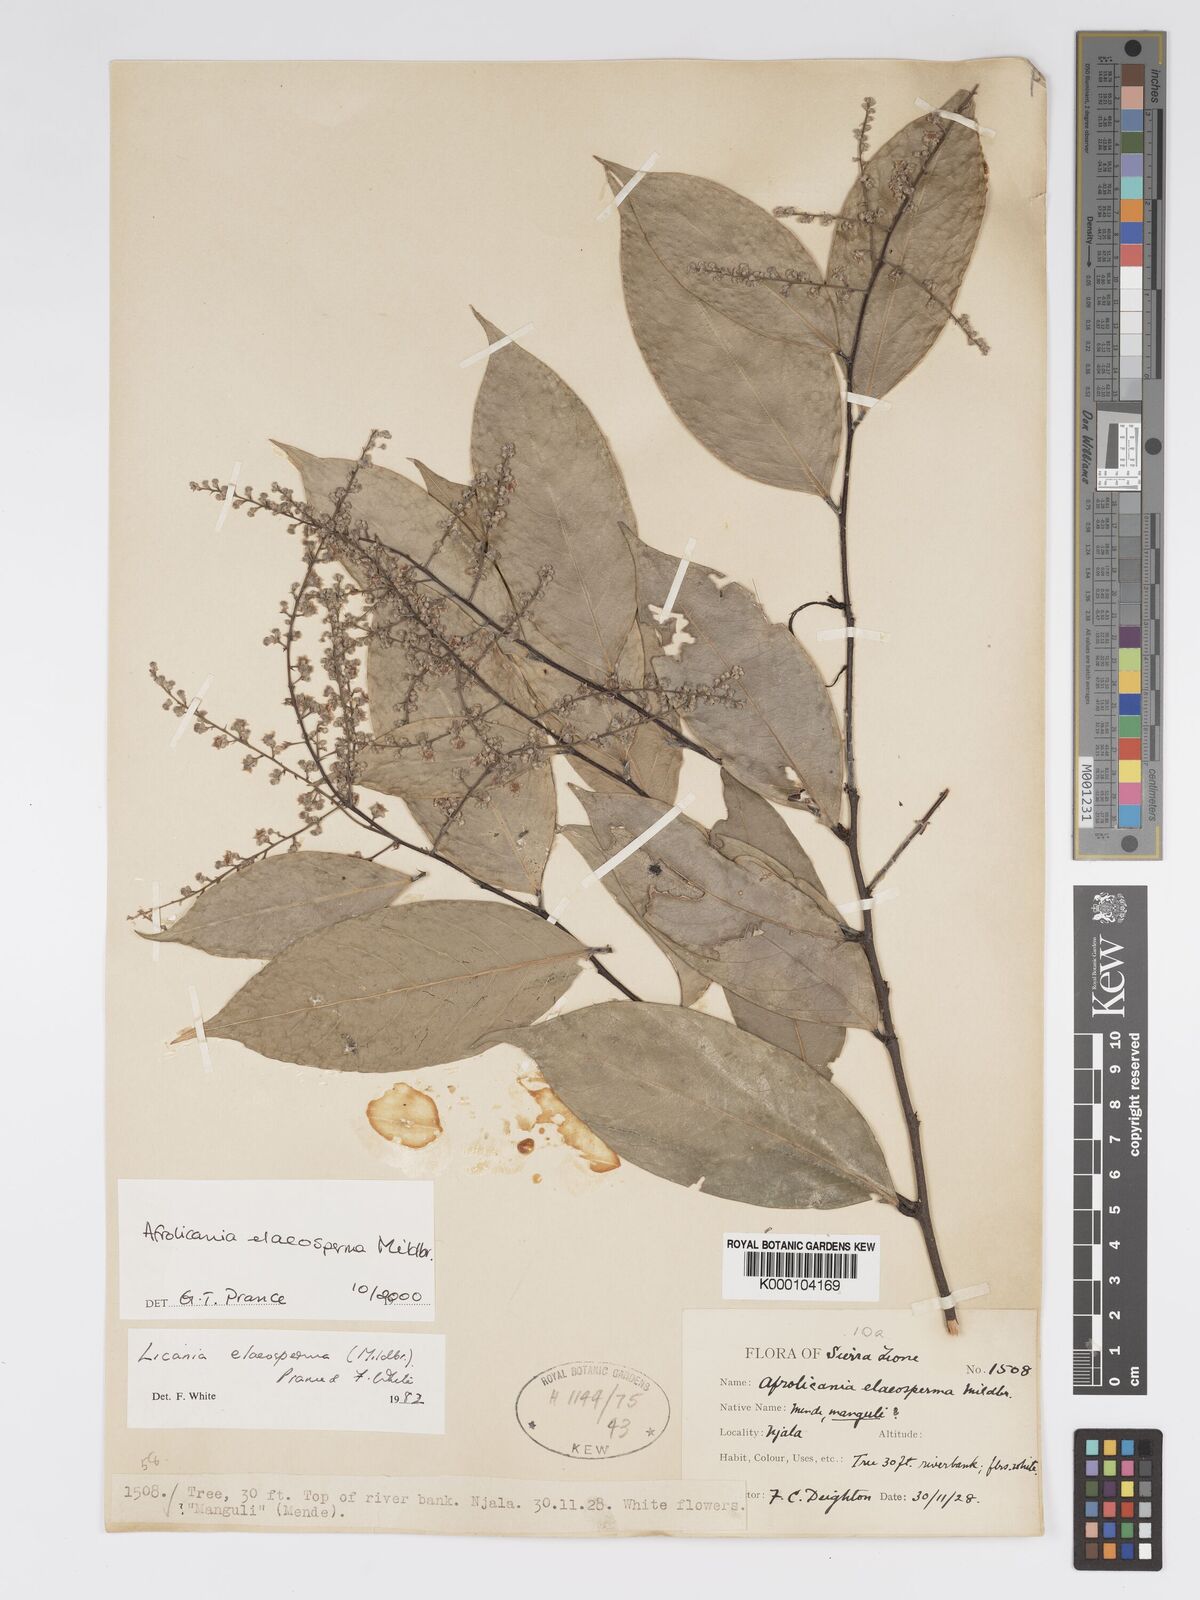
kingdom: Plantae
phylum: Tracheophyta
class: Magnoliopsida
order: Malpighiales
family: Chrysobalanaceae
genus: Afrolicania
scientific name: Afrolicania elaeosperma
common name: Nikko
